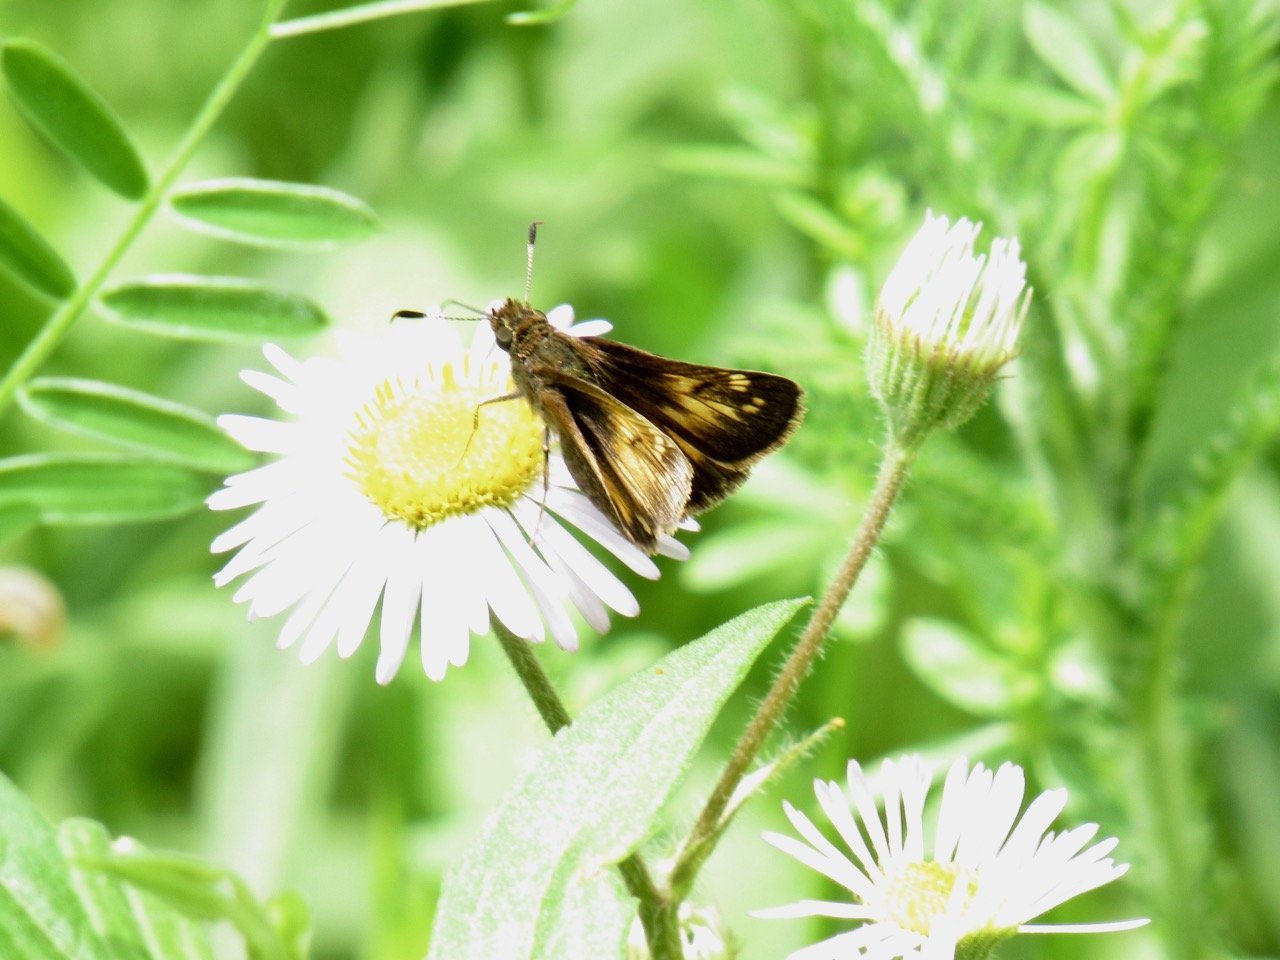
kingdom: Animalia
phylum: Arthropoda
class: Insecta
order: Lepidoptera
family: Hesperiidae
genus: Lon
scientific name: Lon hobomok
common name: Hobomok Skipper
